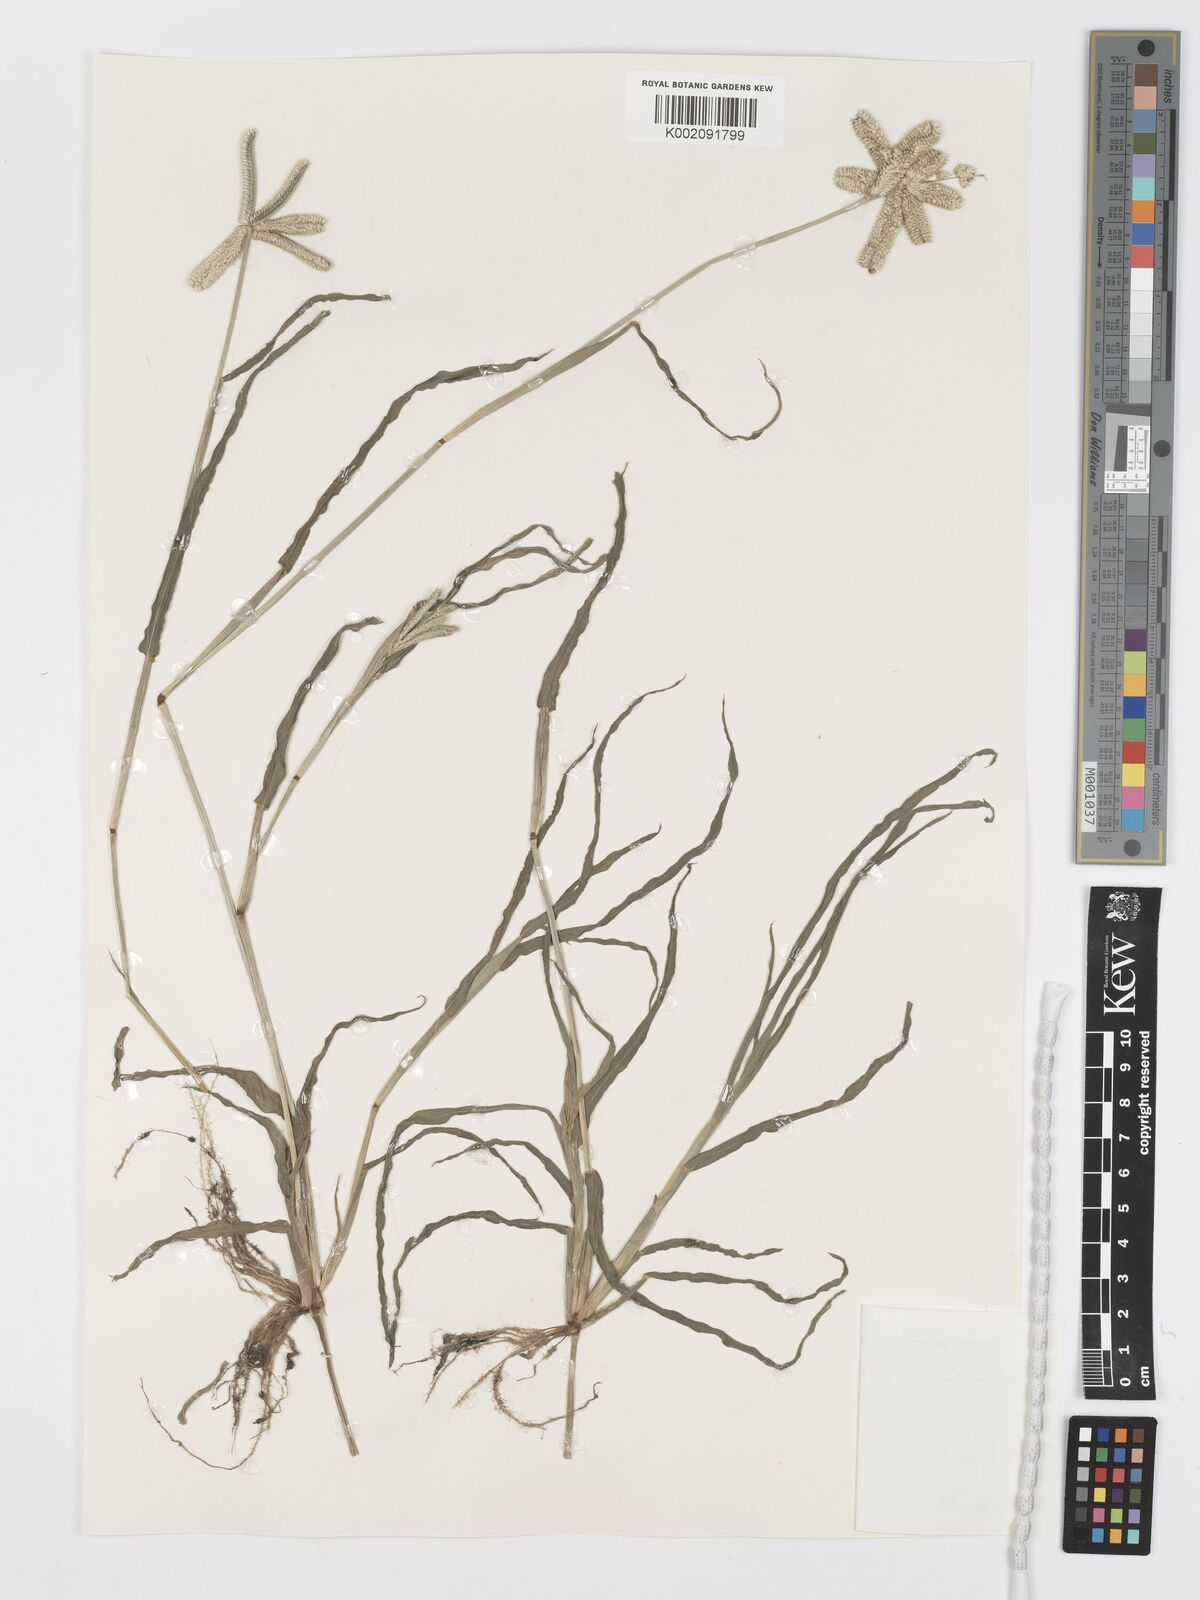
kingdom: Plantae
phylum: Tracheophyta
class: Liliopsida
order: Poales
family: Poaceae
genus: Dactyloctenium
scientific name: Dactyloctenium aegyptium
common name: Egyptian grass
